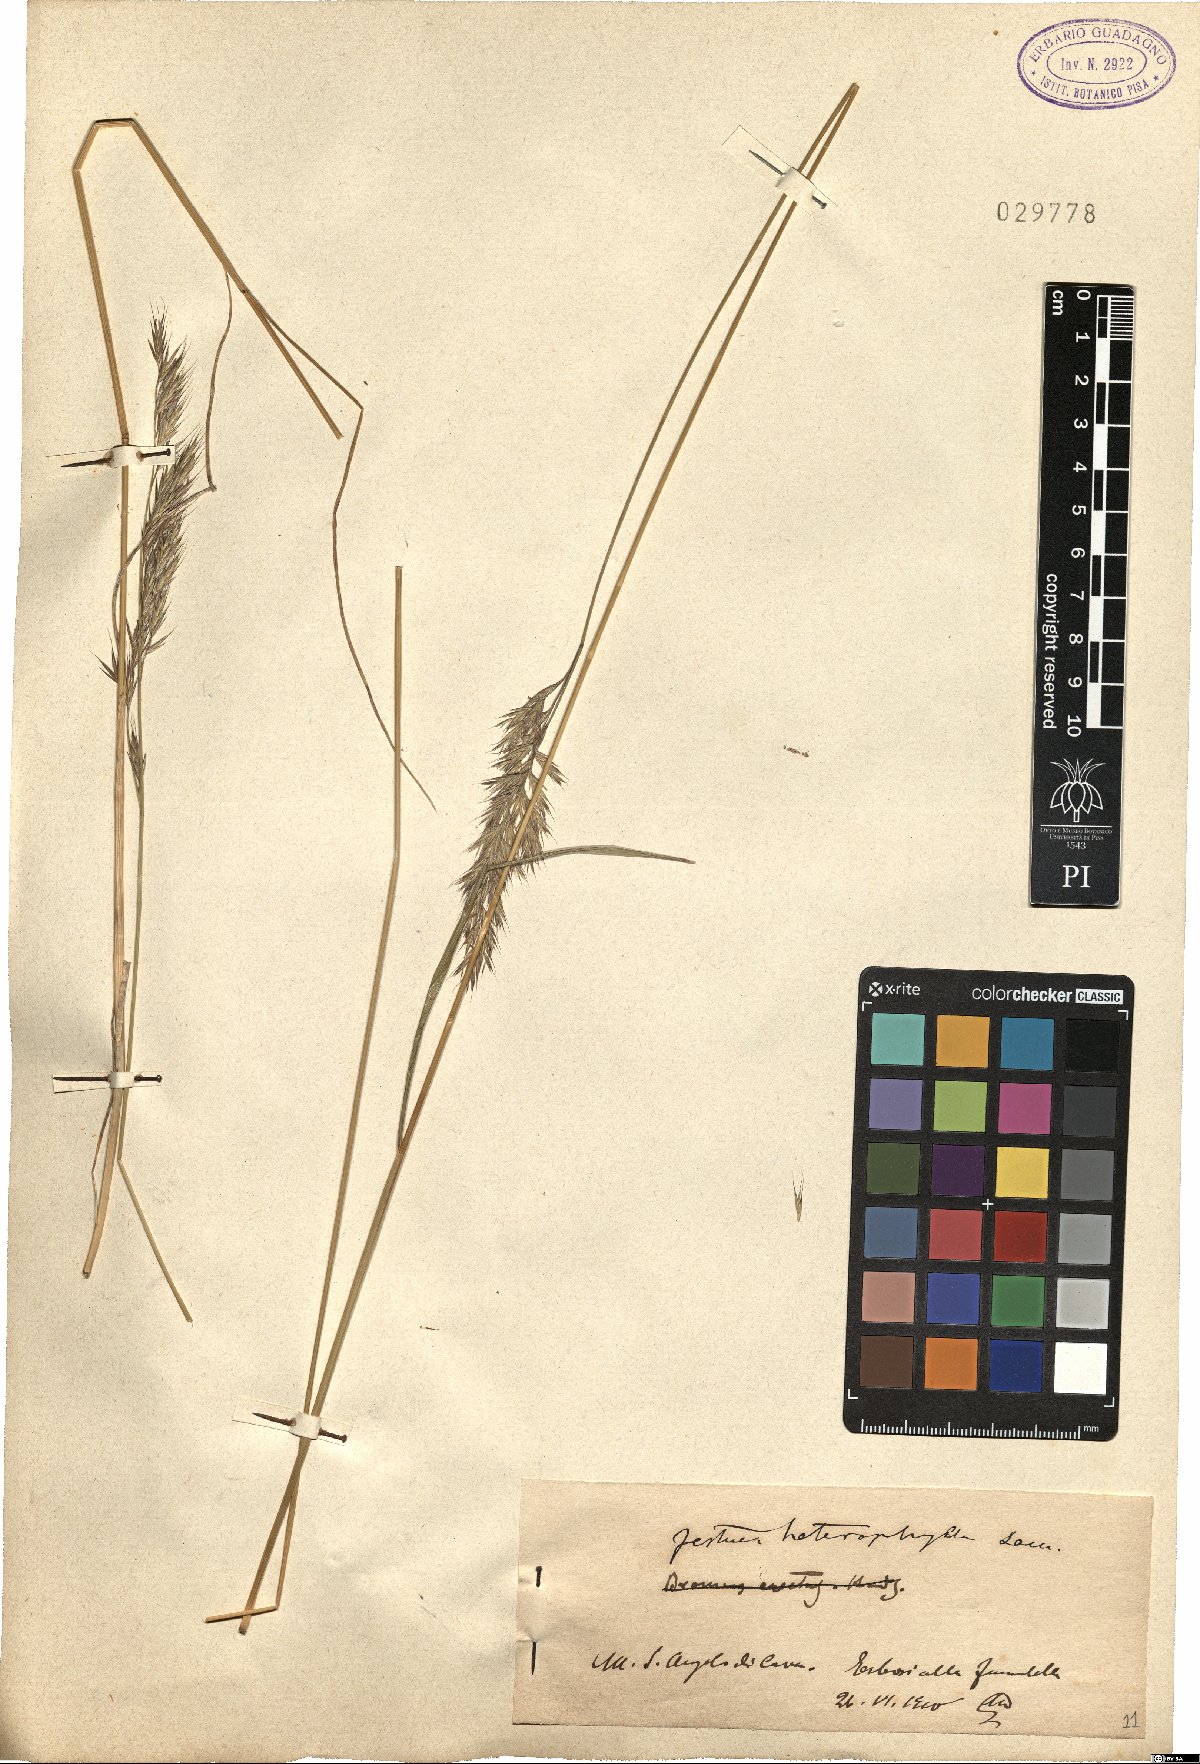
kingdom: Plantae
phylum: Tracheophyta
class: Liliopsida
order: Poales
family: Poaceae
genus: Festuca
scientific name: Festuca heterophylla
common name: Various-leaved fescue
